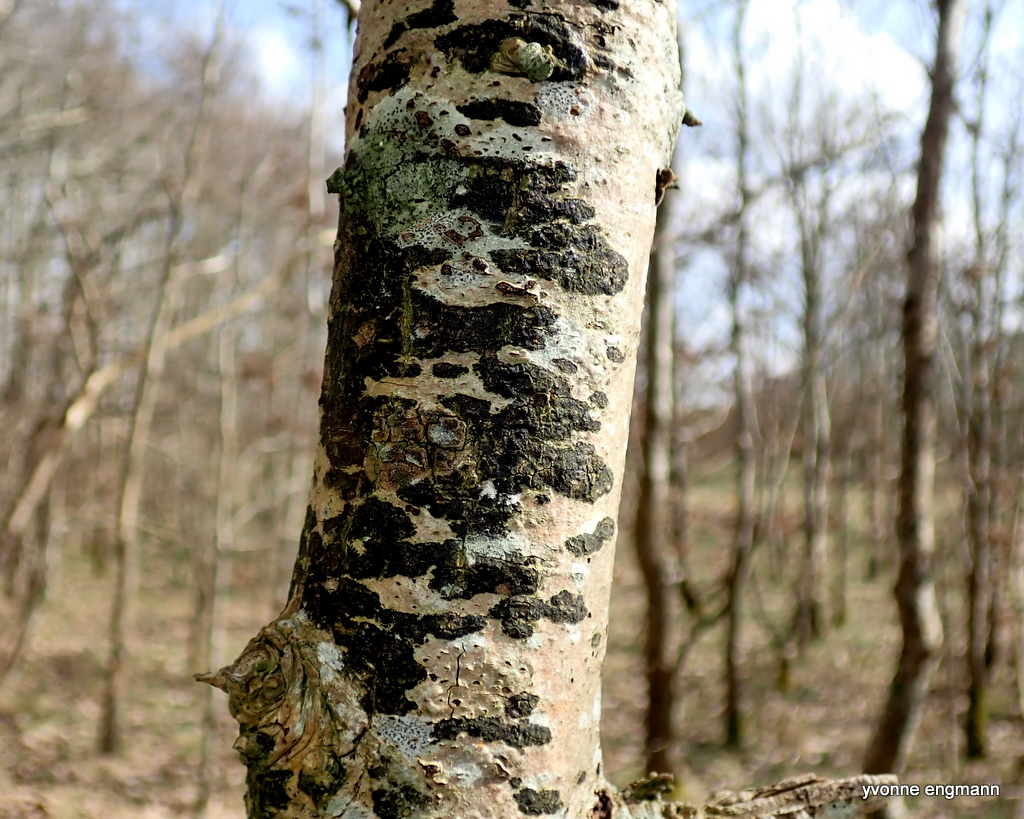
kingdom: Fungi
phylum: Ascomycota
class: Leotiomycetes
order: Rhytismatales
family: Ascodichaenaceae
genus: Ascodichaena
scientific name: Ascodichaena rugosa
